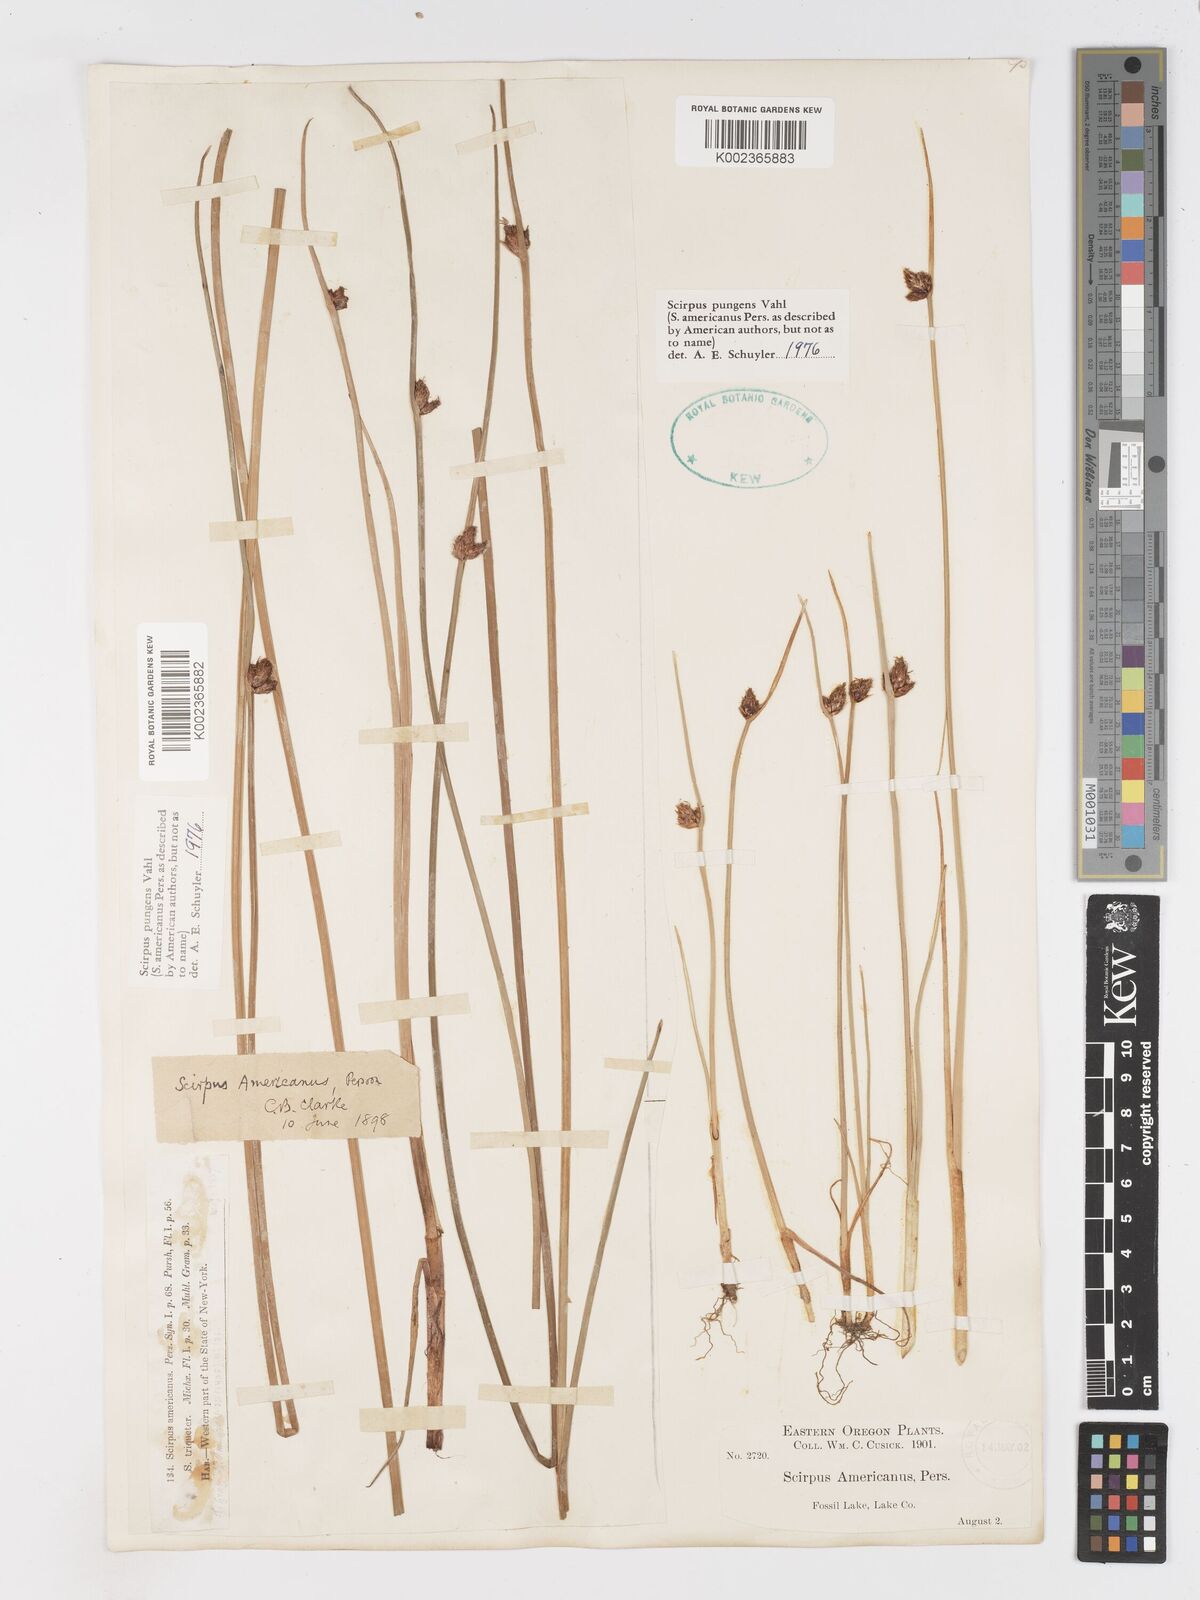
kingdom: Plantae
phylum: Tracheophyta
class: Liliopsida
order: Poales
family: Cyperaceae
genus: Schoenoplectus
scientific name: Schoenoplectus pungens
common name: Sharp club-rush
